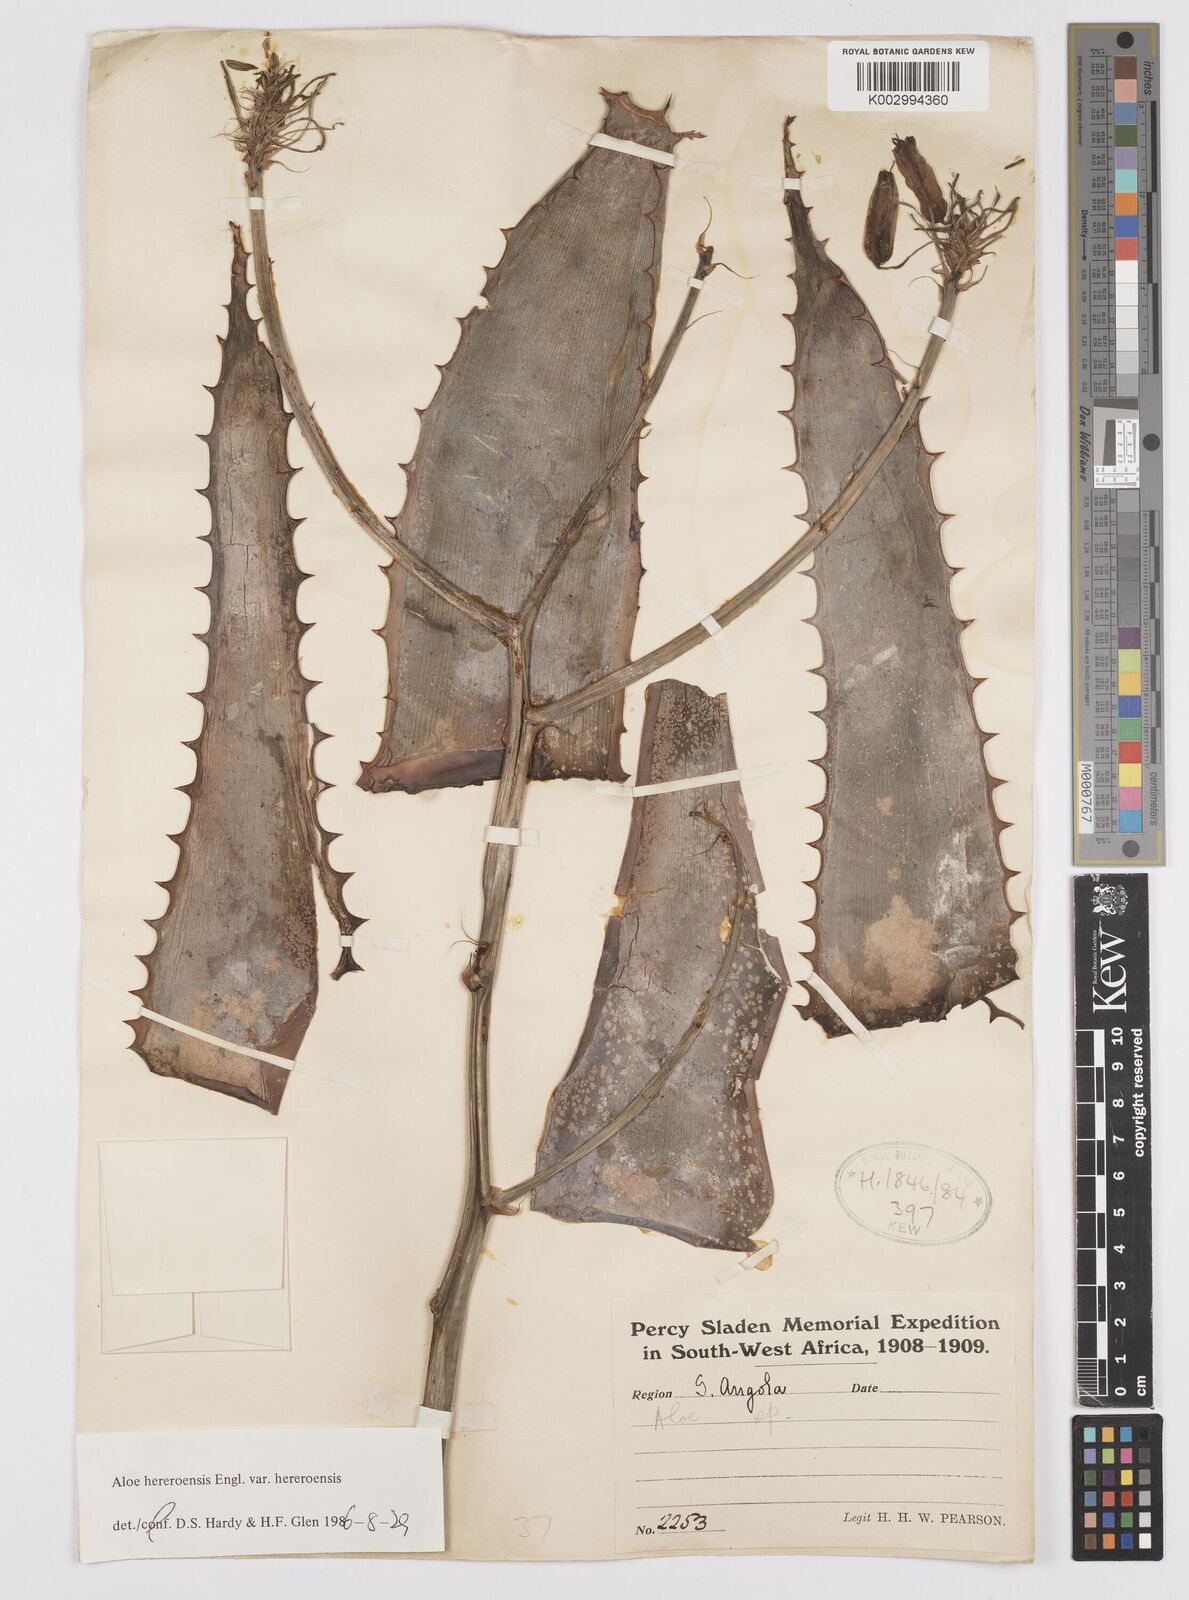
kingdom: Plantae
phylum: Tracheophyta
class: Liliopsida
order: Asparagales
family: Asphodelaceae
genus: Aloe
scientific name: Aloe hereroensis
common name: Herero aloe
